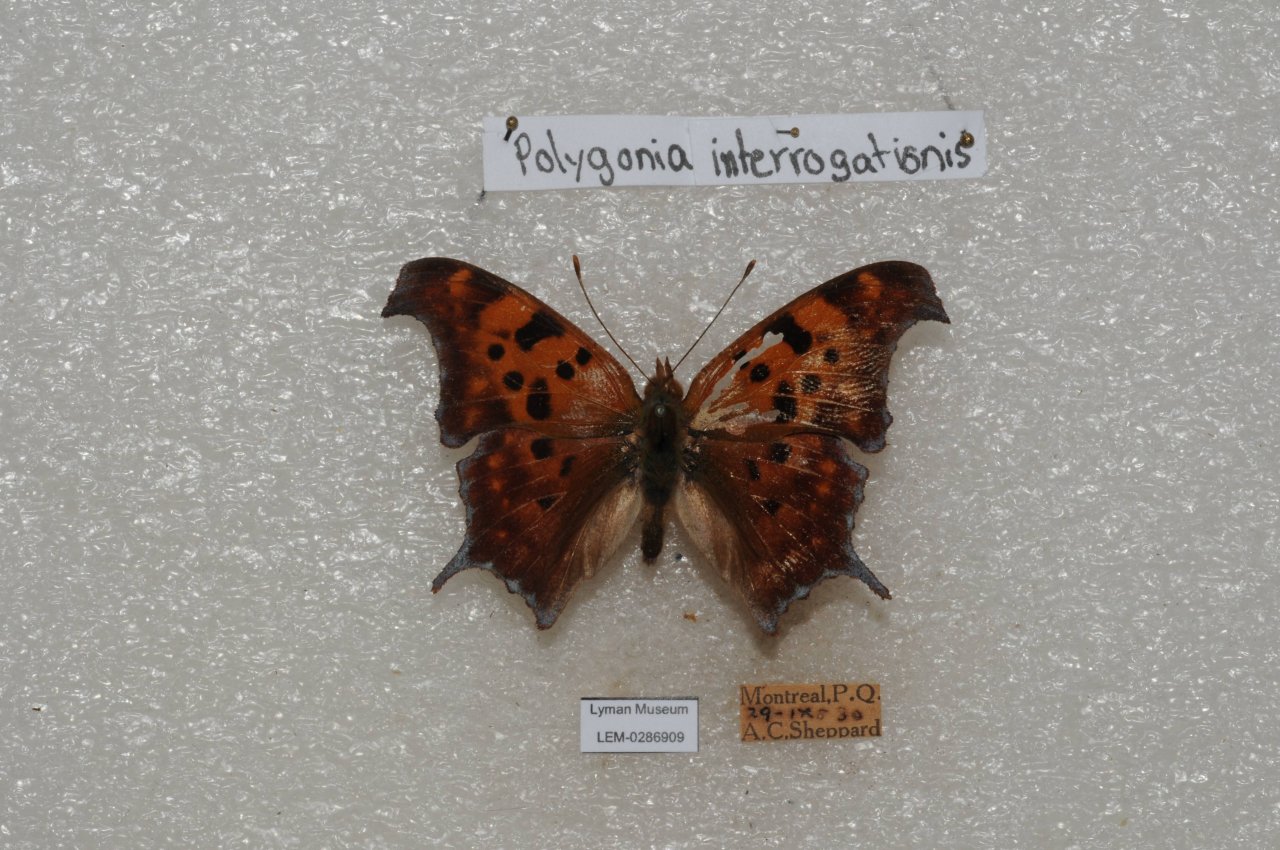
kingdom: Animalia
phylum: Arthropoda
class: Insecta
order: Lepidoptera
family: Nymphalidae
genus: Polygonia
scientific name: Polygonia interrogationis
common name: Question Mark
